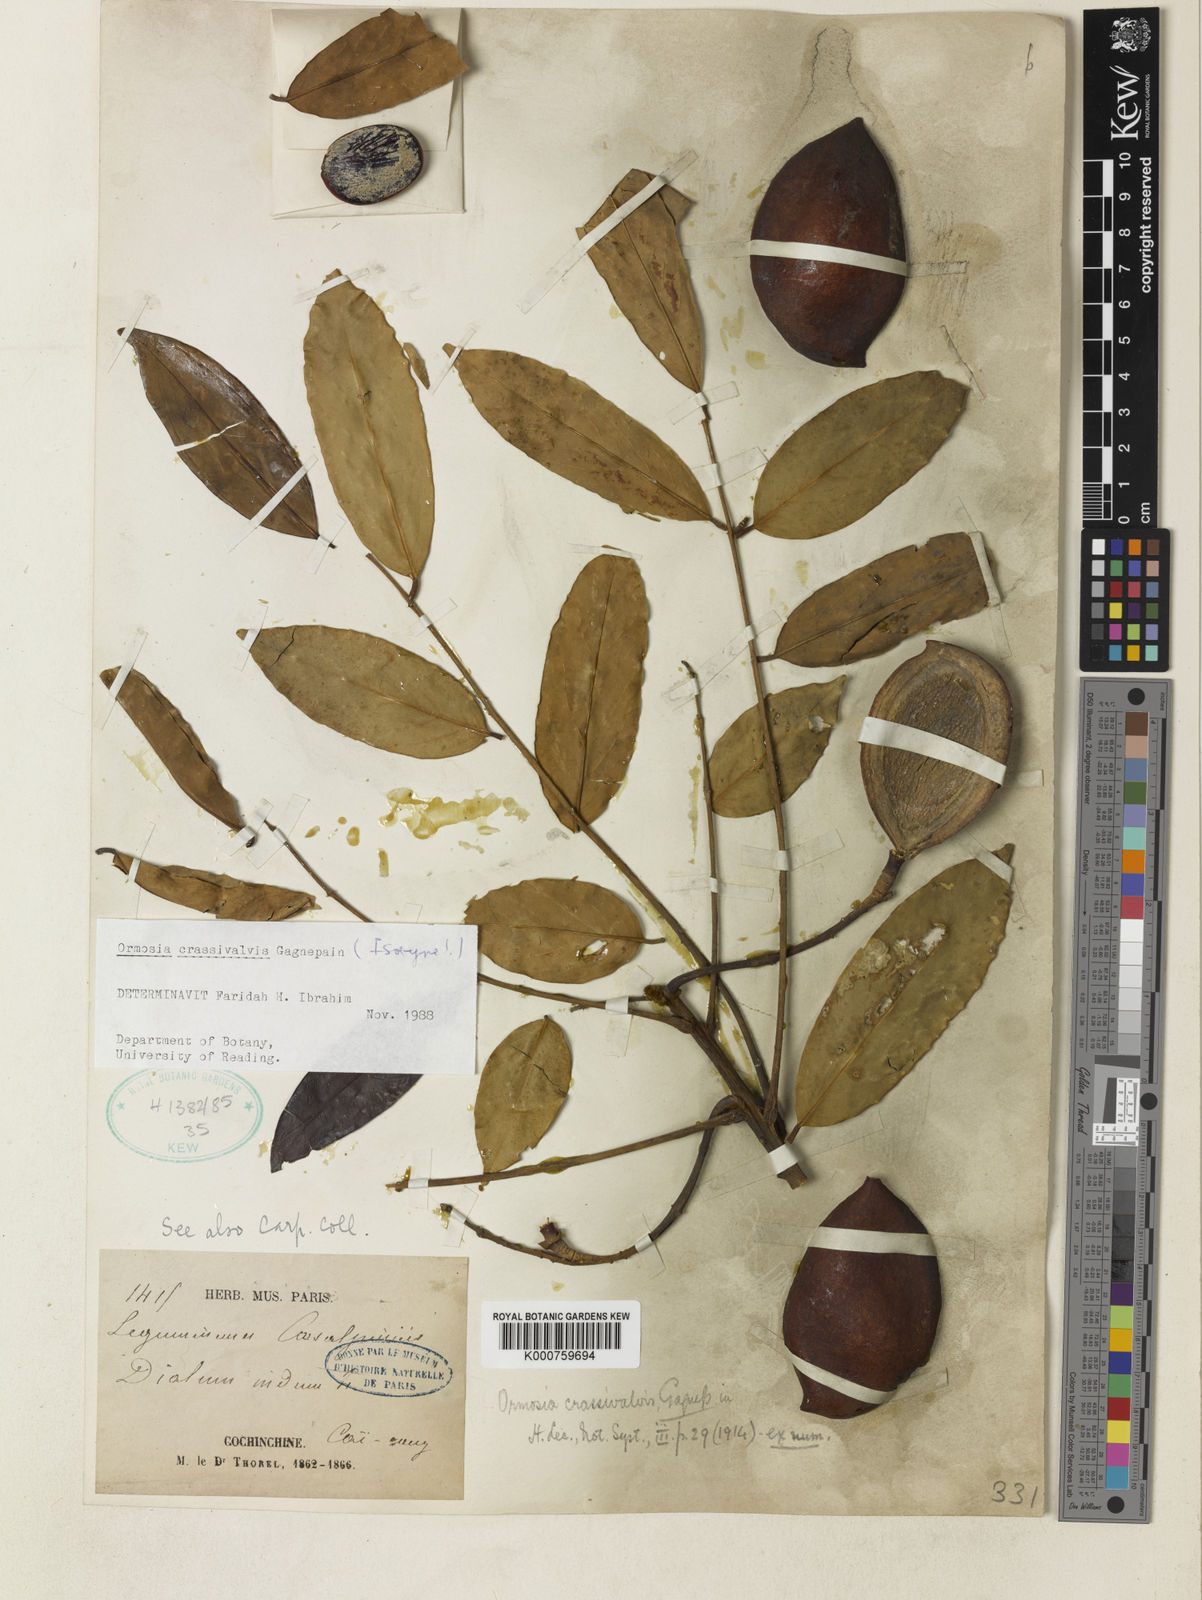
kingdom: Plantae
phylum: Tracheophyta
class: Magnoliopsida
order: Fabales
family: Fabaceae
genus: Ormosia
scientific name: Ormosia crassivalvis
